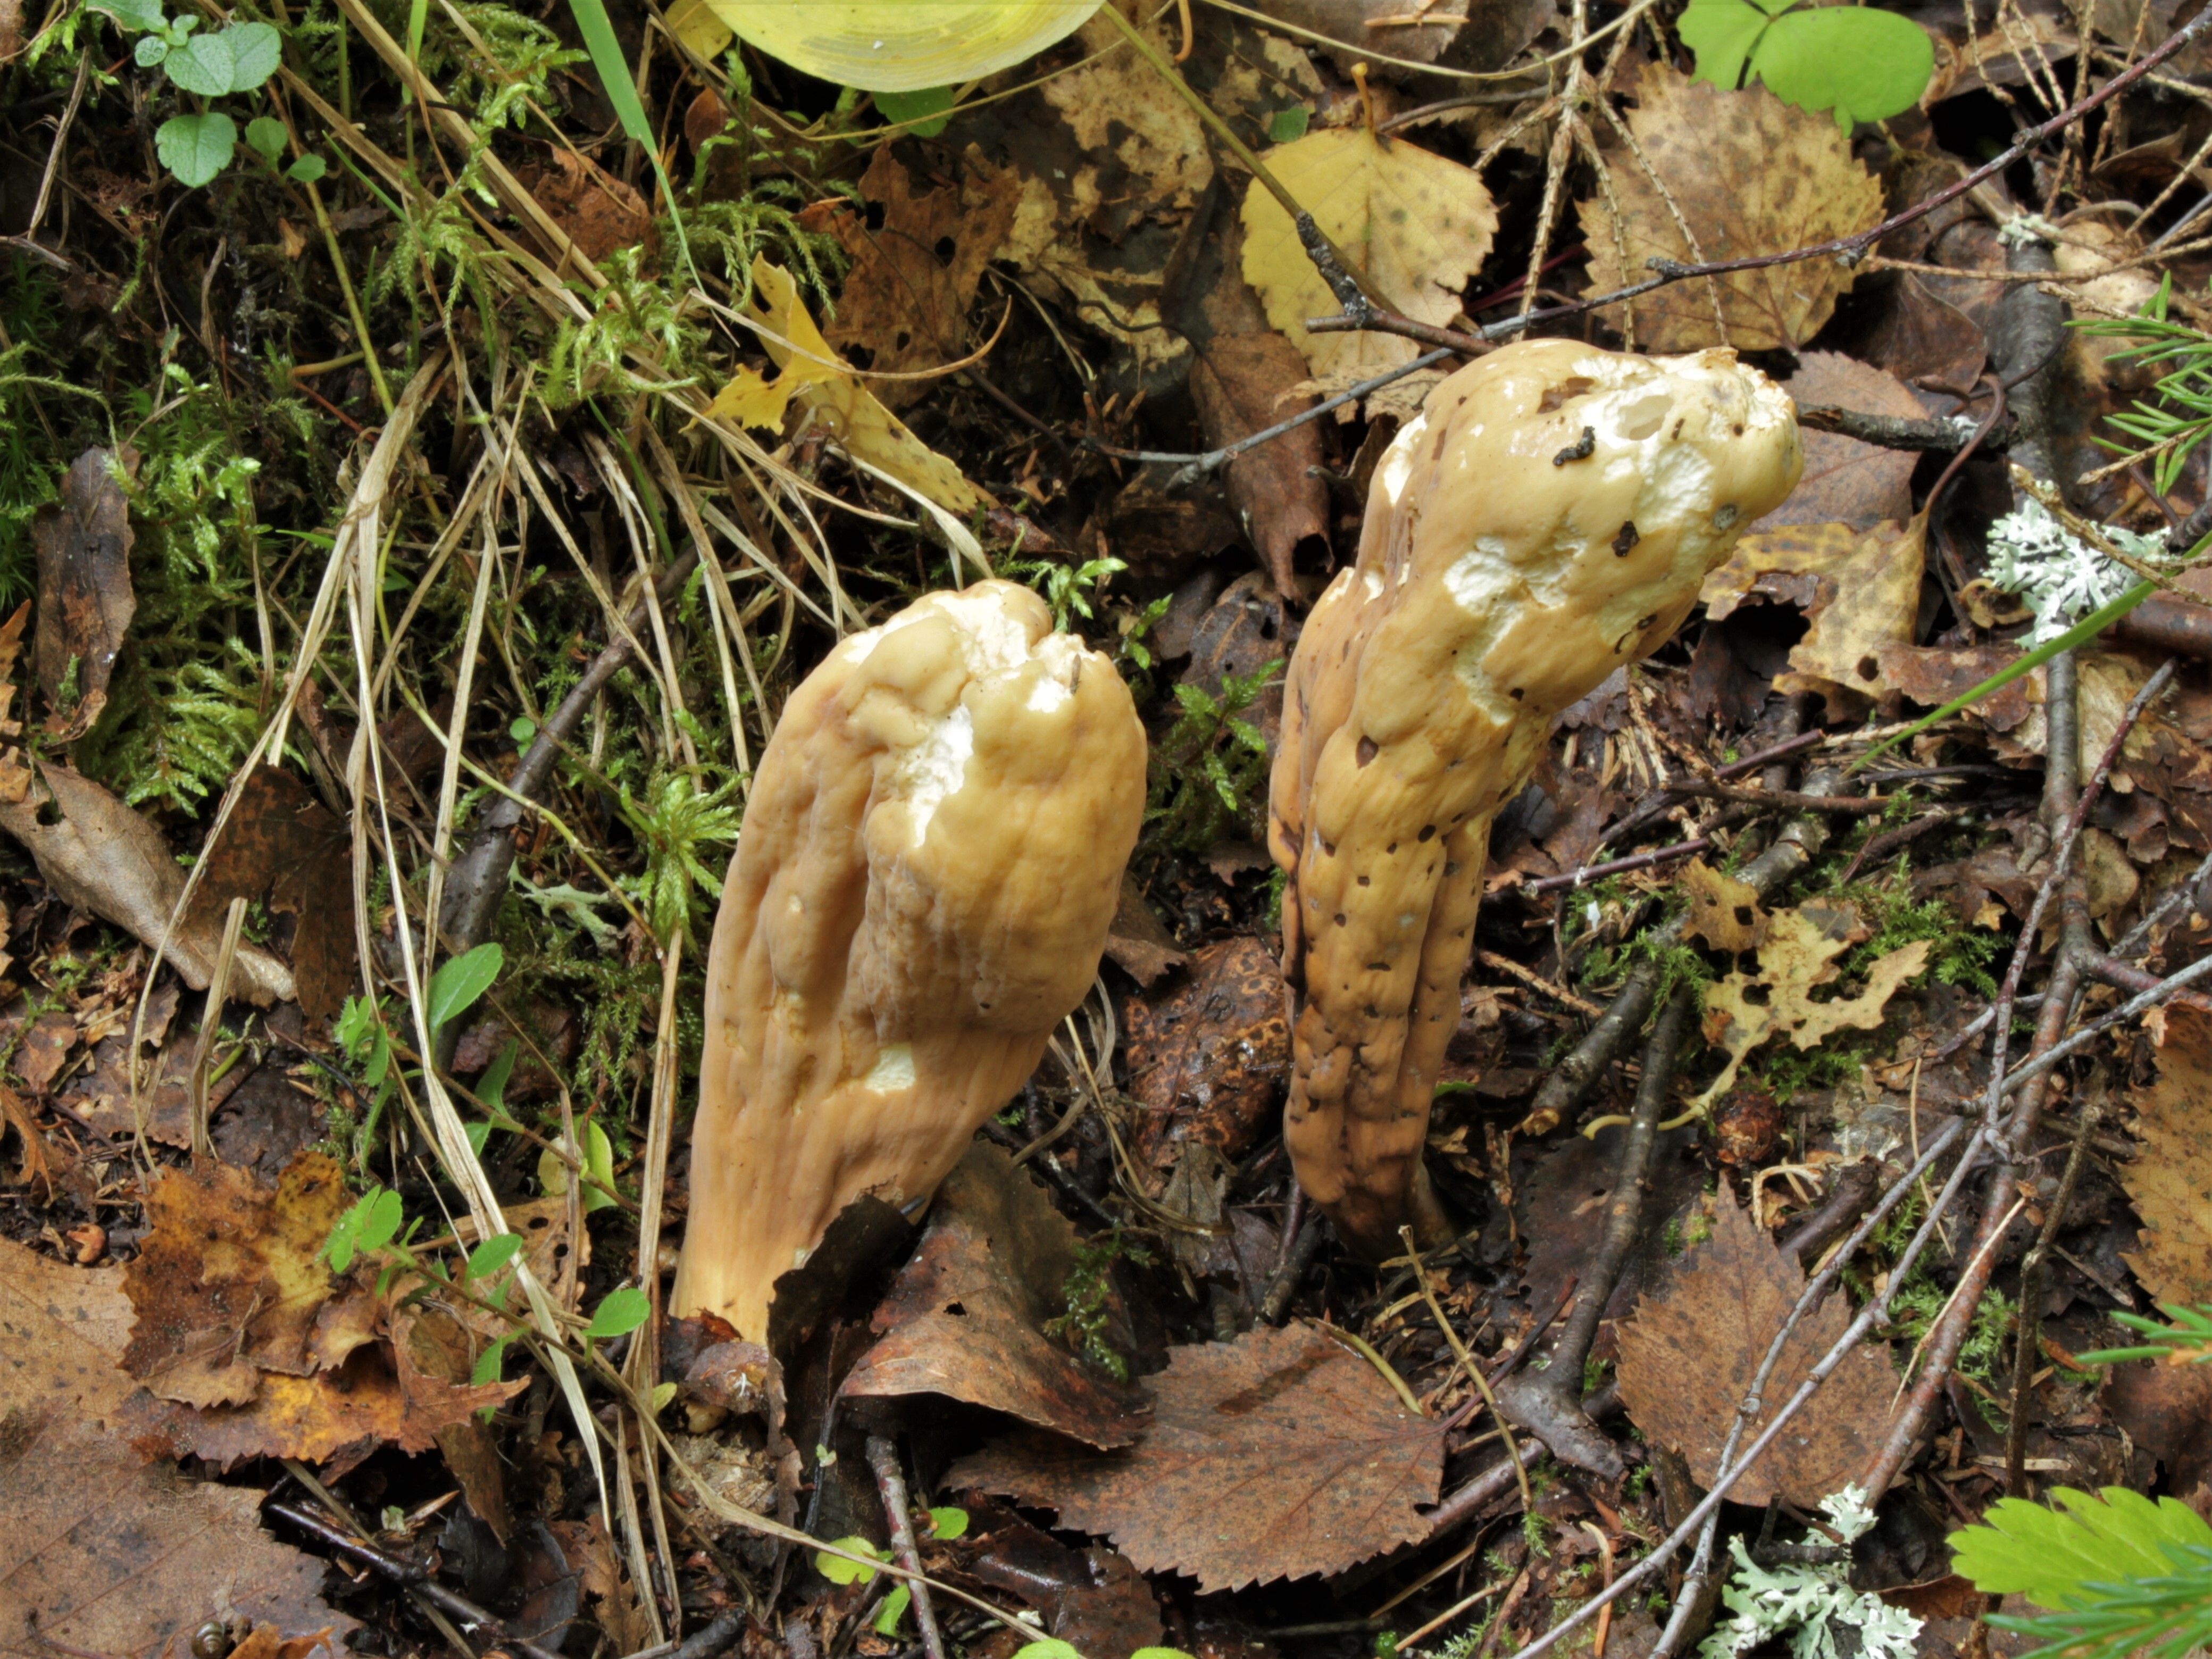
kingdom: Fungi
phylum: Basidiomycota
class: Agaricomycetes
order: Gomphales
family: Clavariadelphaceae
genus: Clavariadelphus
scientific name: Clavariadelphus pistillaris
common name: Giant club
